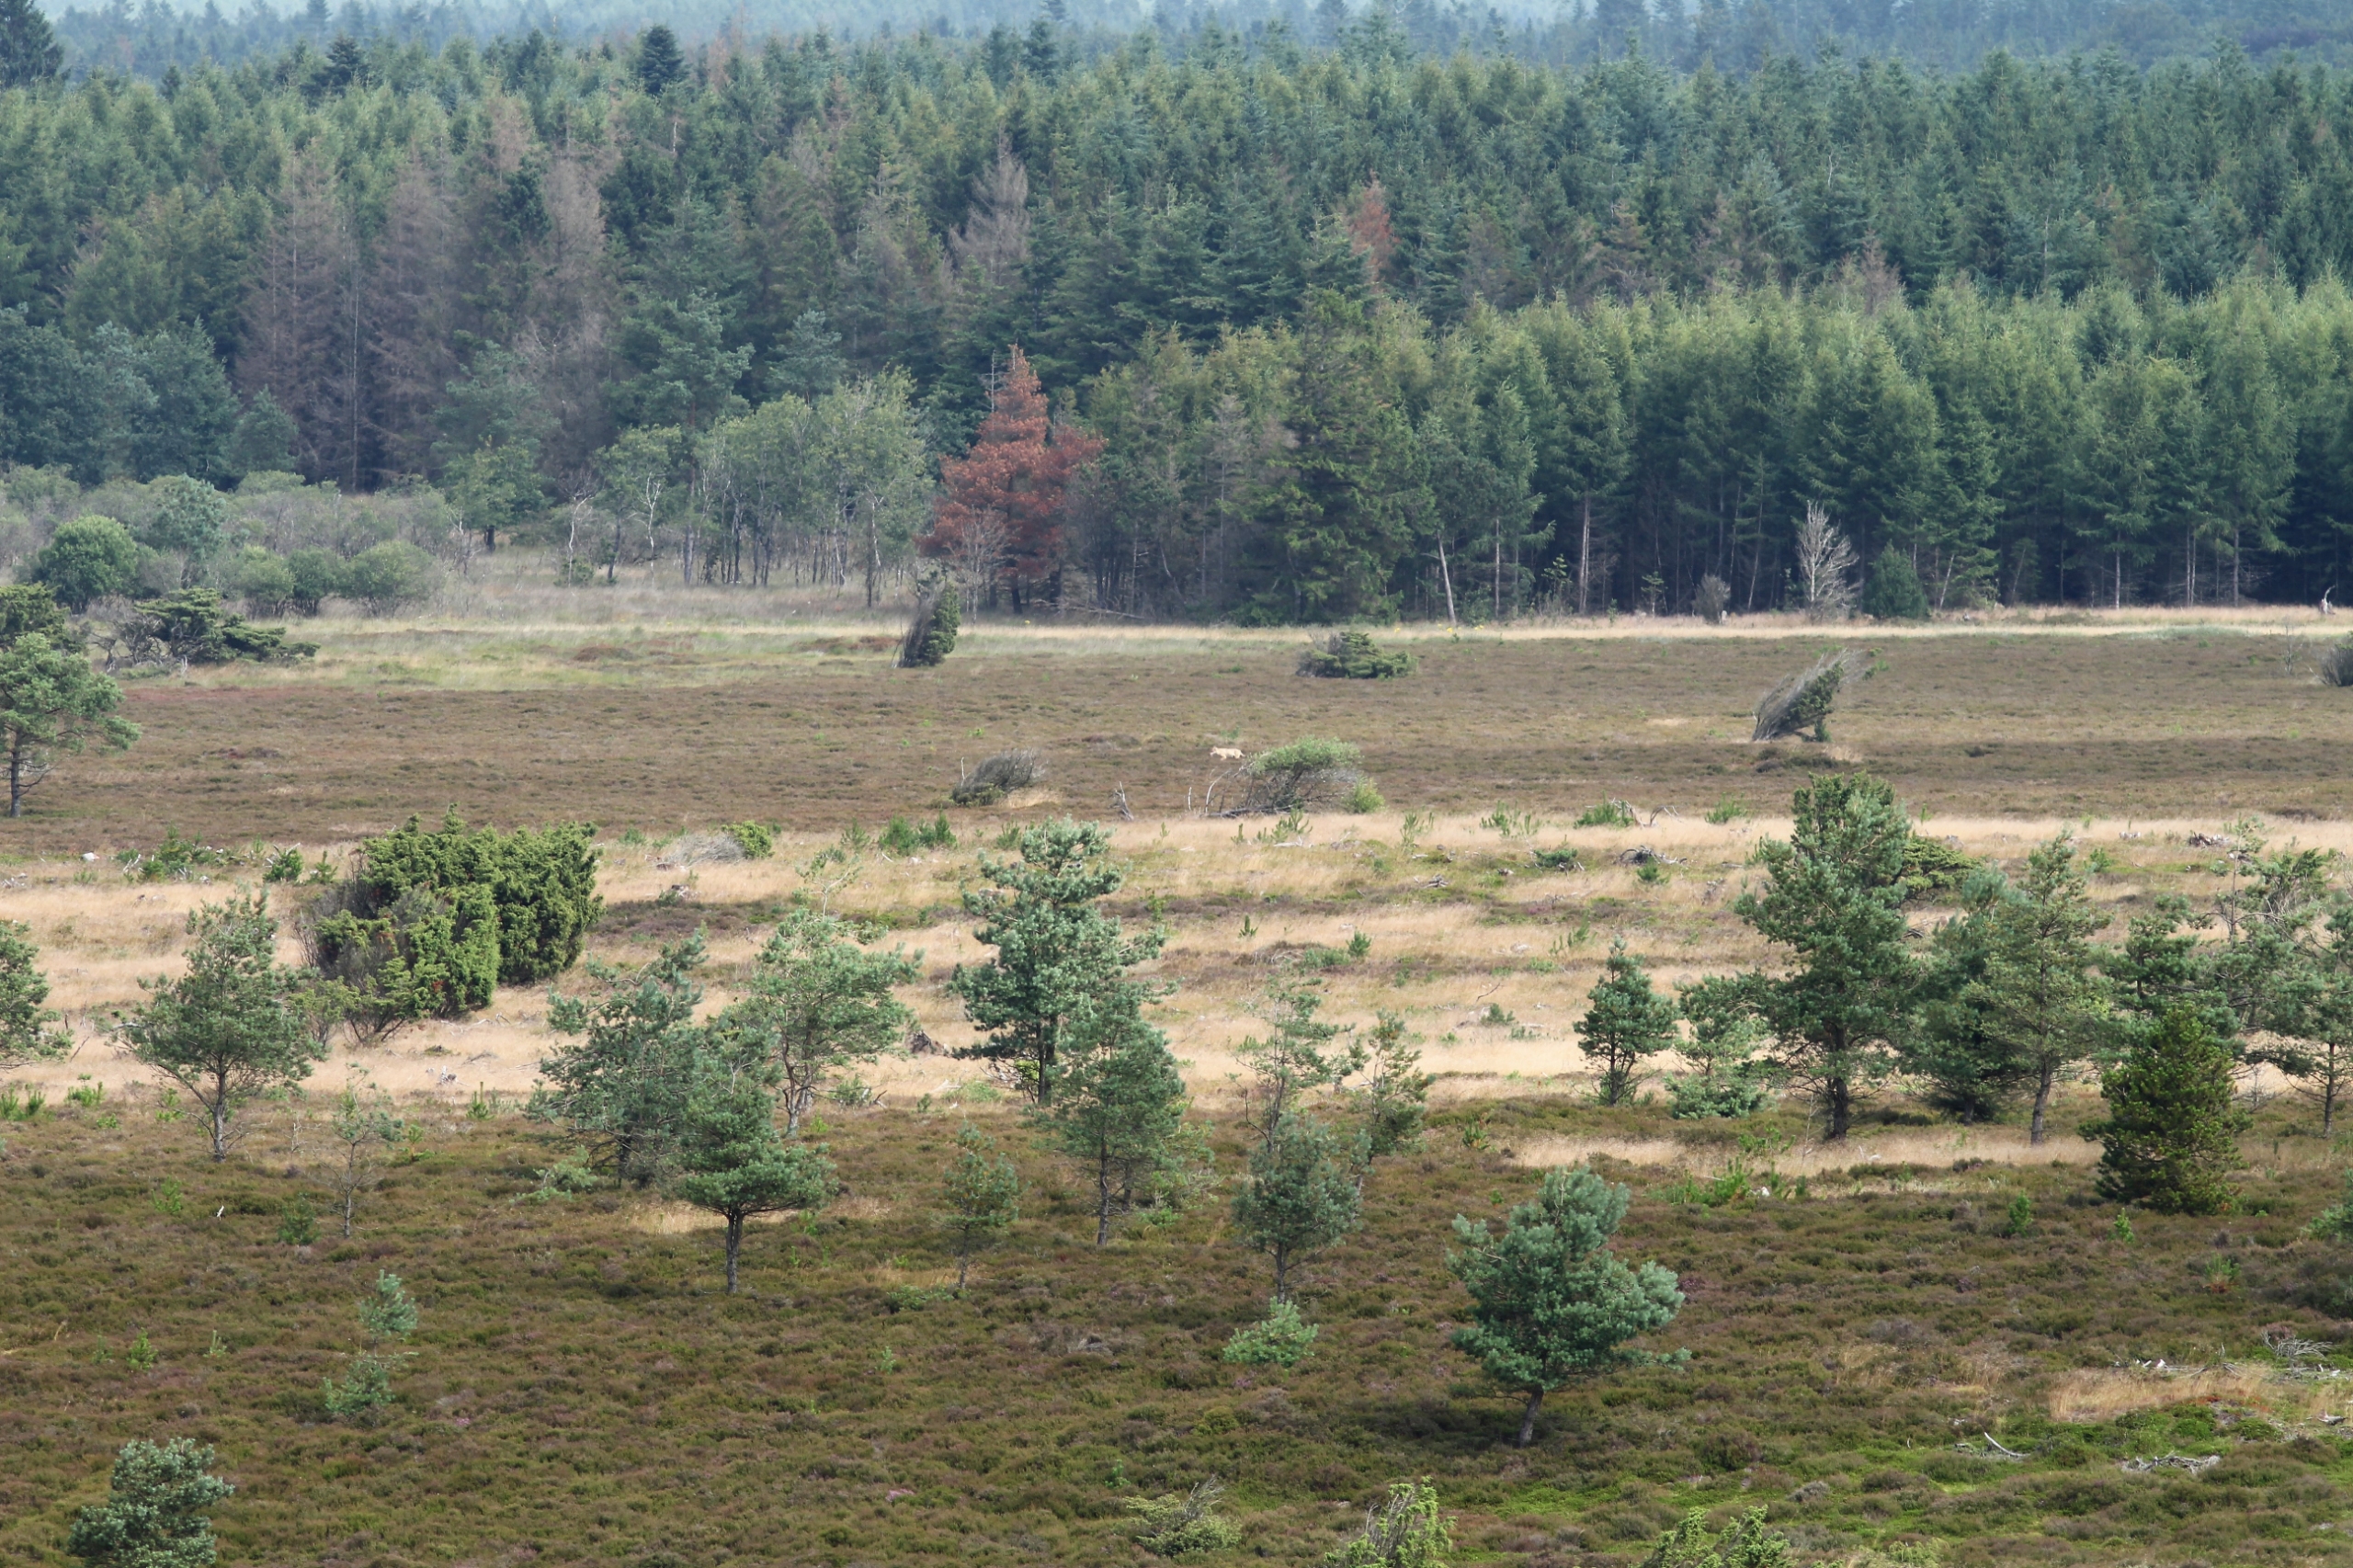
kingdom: Animalia
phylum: Chordata
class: Mammalia
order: Carnivora
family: Canidae
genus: Canis
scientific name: Canis lupus
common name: Ulv
